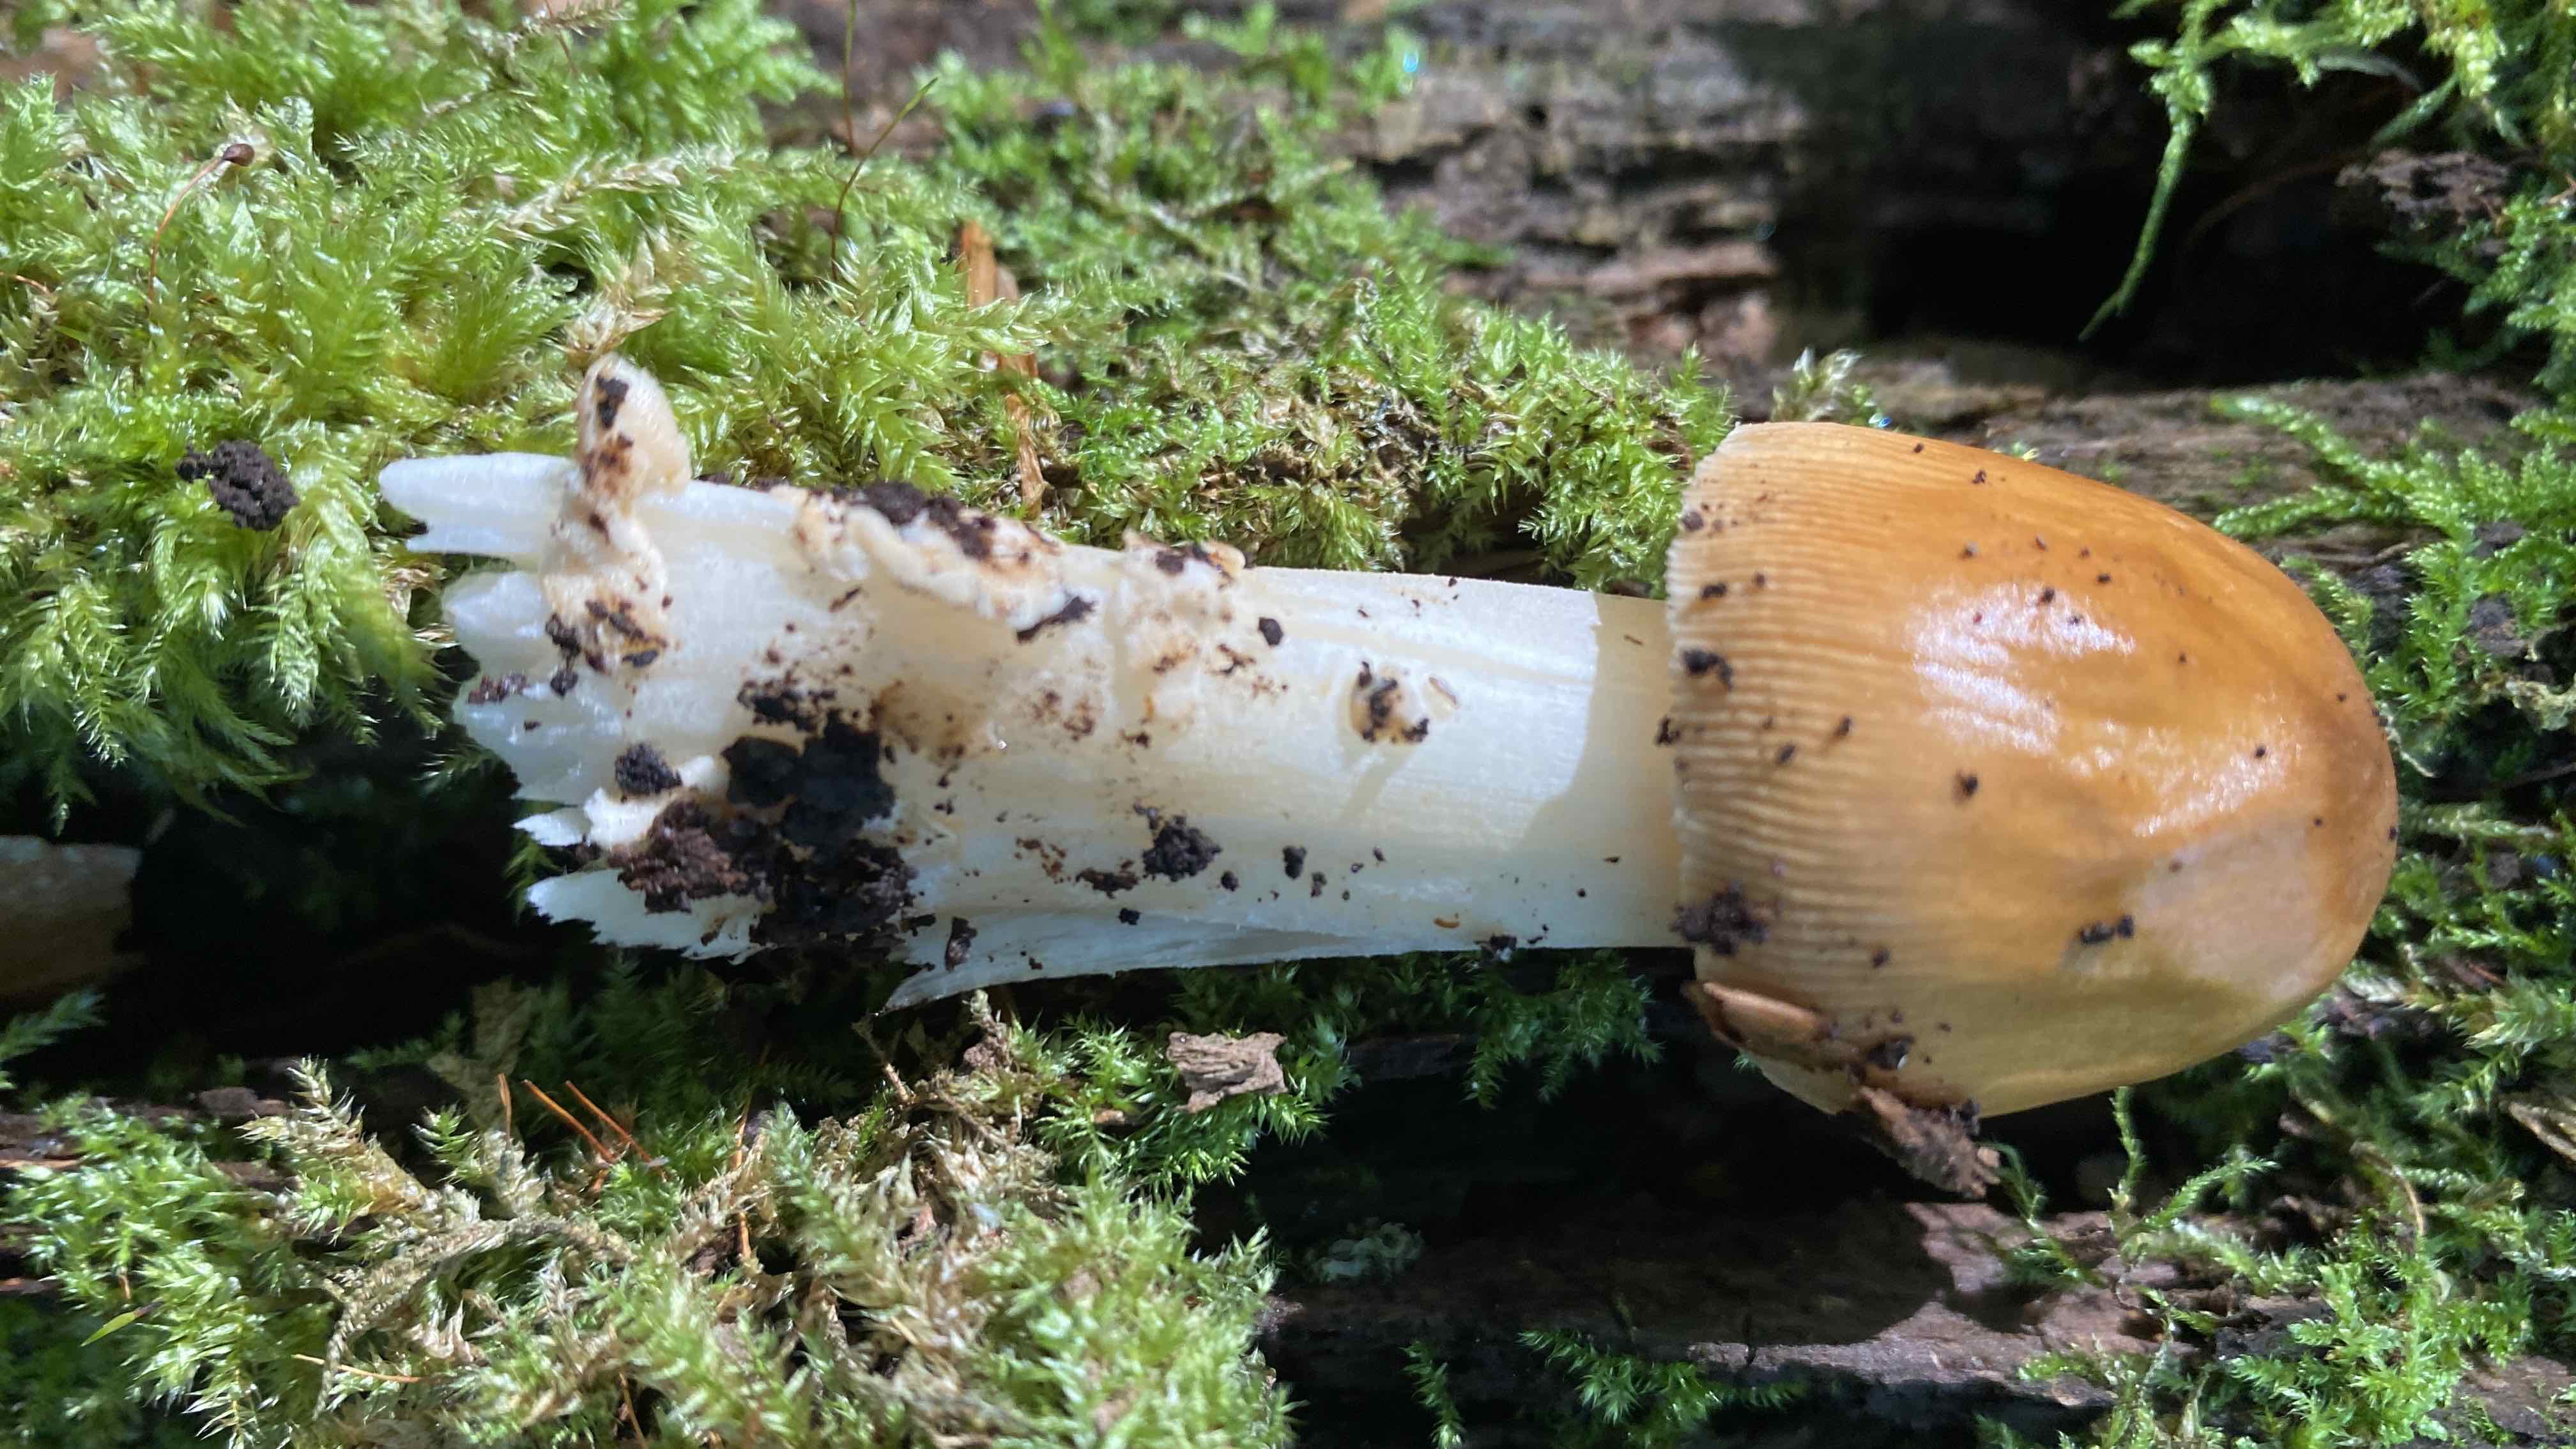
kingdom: Fungi
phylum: Basidiomycota
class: Agaricomycetes
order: Agaricales
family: Amanitaceae
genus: Amanita
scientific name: Amanita fulva
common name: brun kam-fluesvamp
